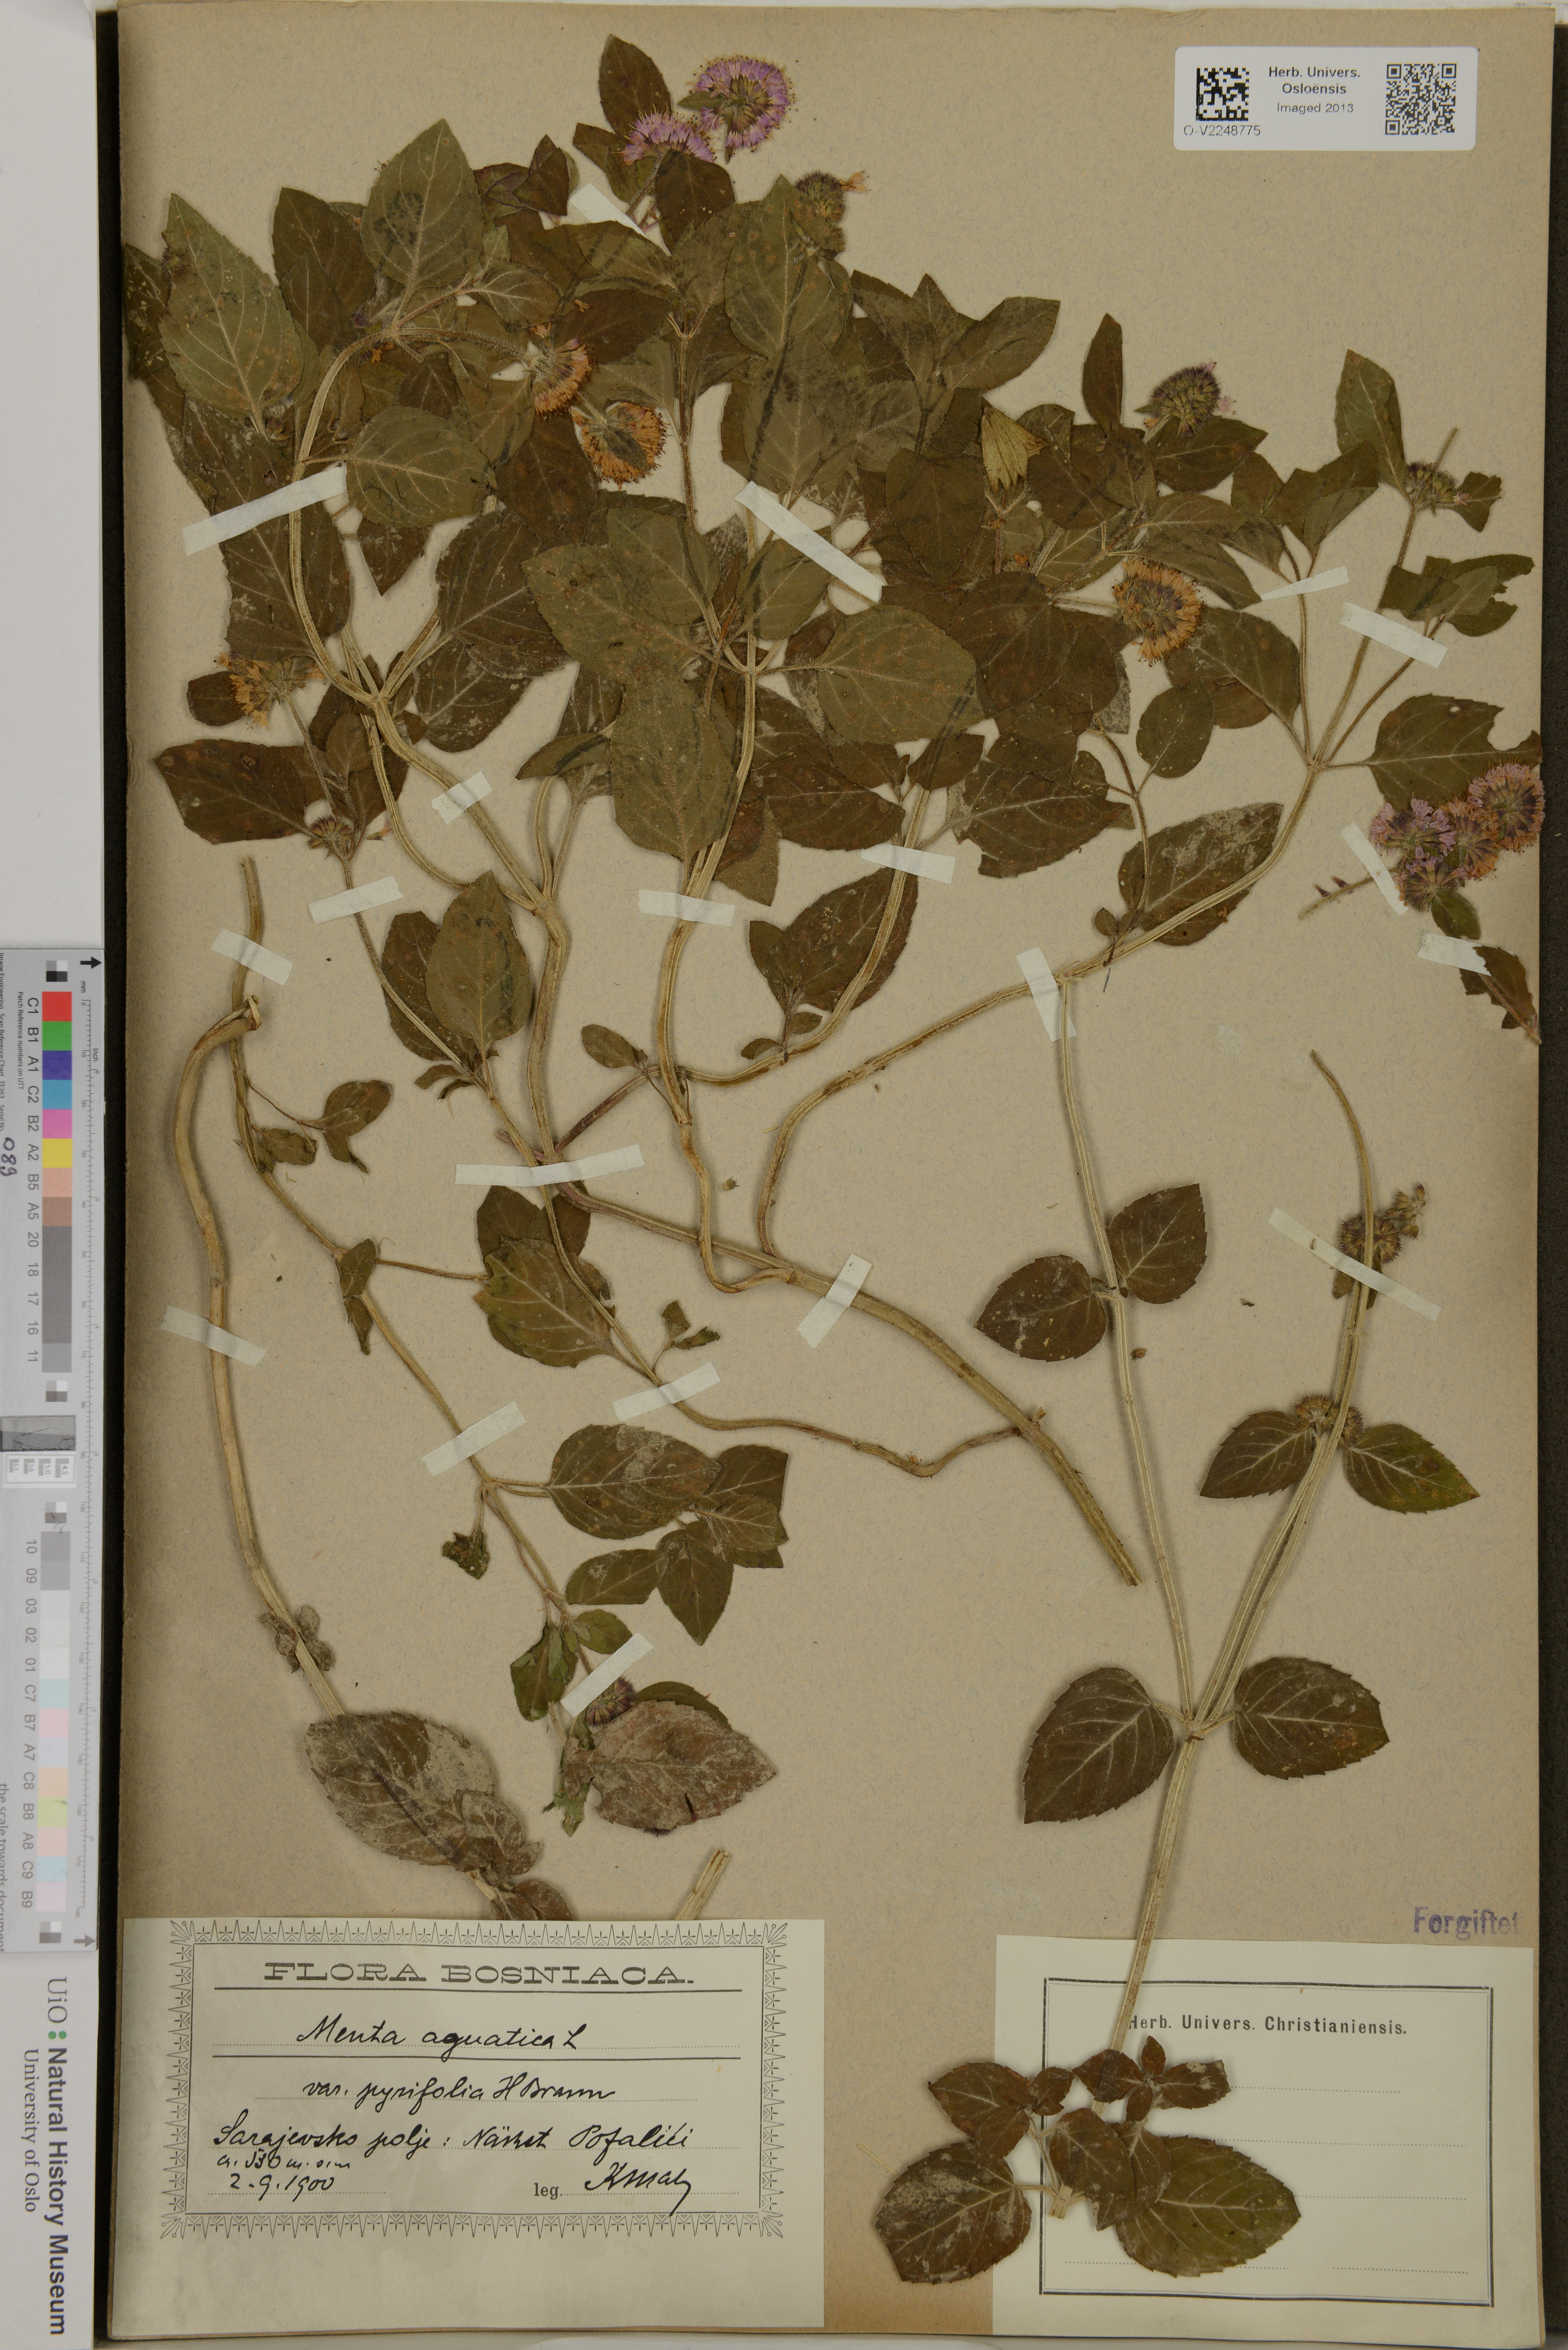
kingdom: Plantae
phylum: Tracheophyta
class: Magnoliopsida
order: Lamiales
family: Lamiaceae
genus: Mentha
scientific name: Mentha aquatica
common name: Water mint
